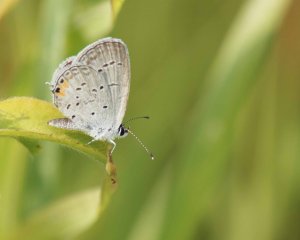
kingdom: Animalia
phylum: Arthropoda
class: Insecta
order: Lepidoptera
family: Lycaenidae
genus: Elkalyce
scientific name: Elkalyce comyntas
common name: Eastern Tailed-Blue
